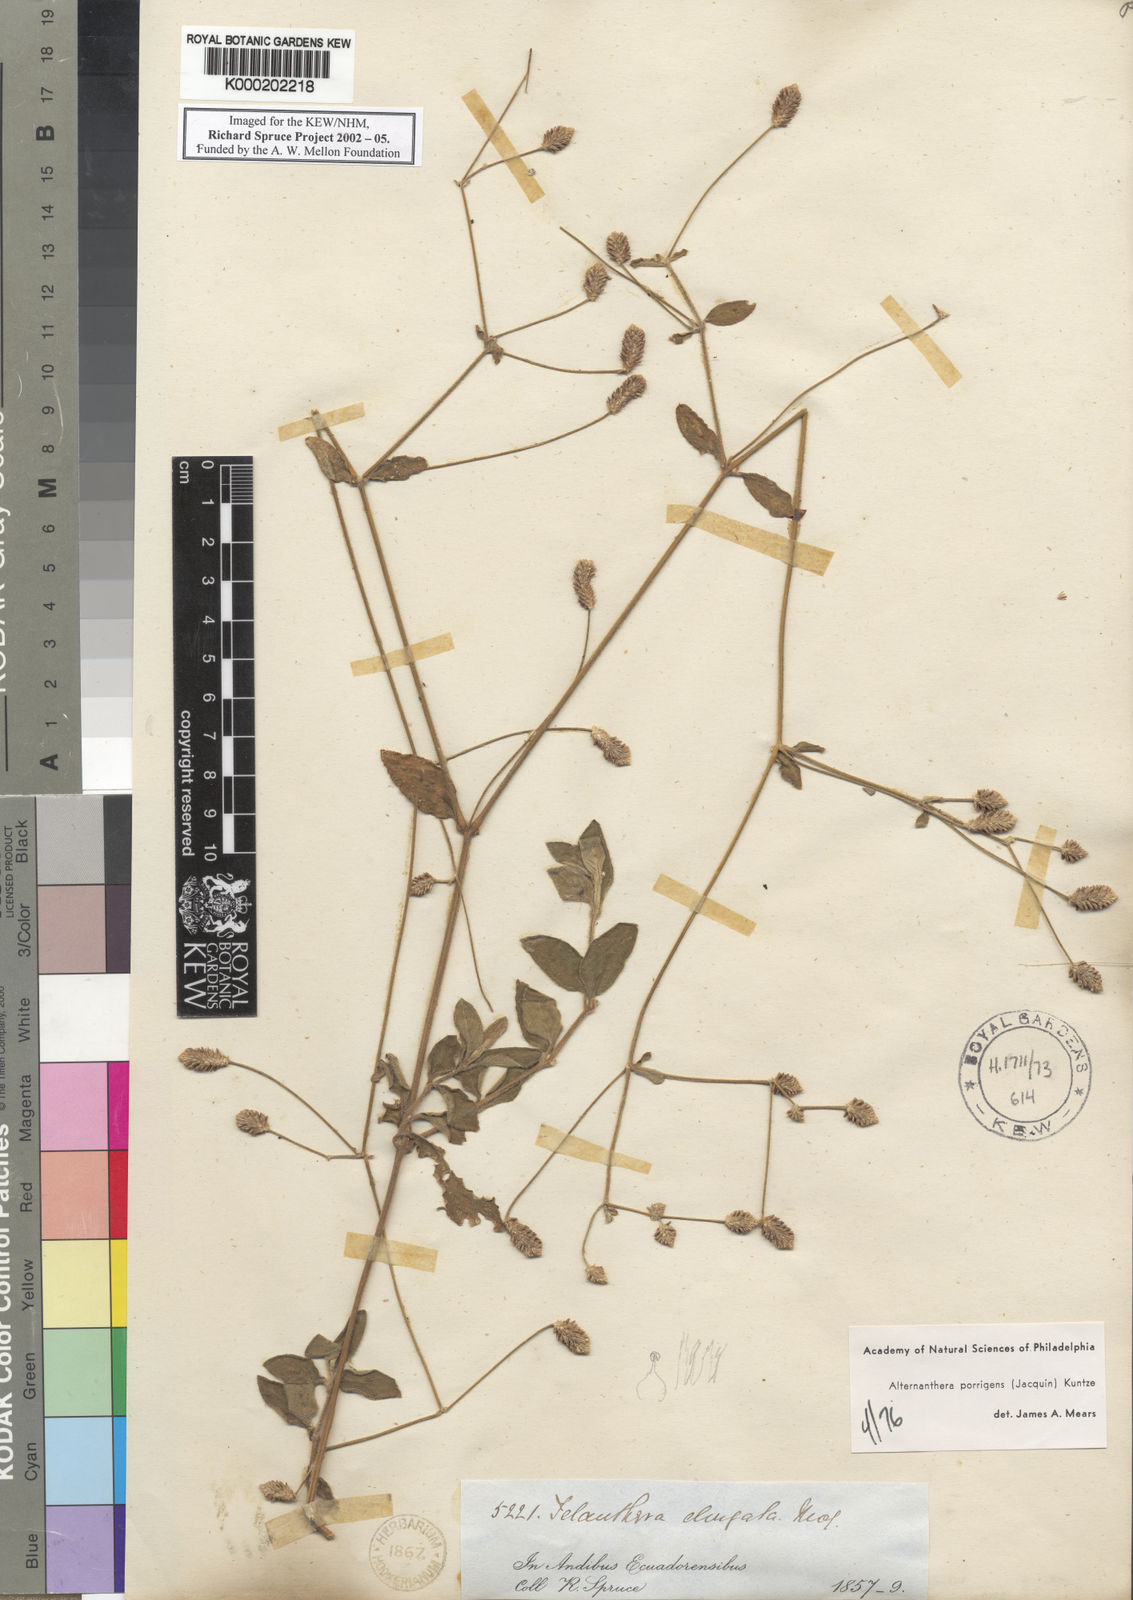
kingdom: Plantae
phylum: Tracheophyta
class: Magnoliopsida
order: Caryophyllales
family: Amaranthaceae
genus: Alternanthera
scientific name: Alternanthera porrigens
